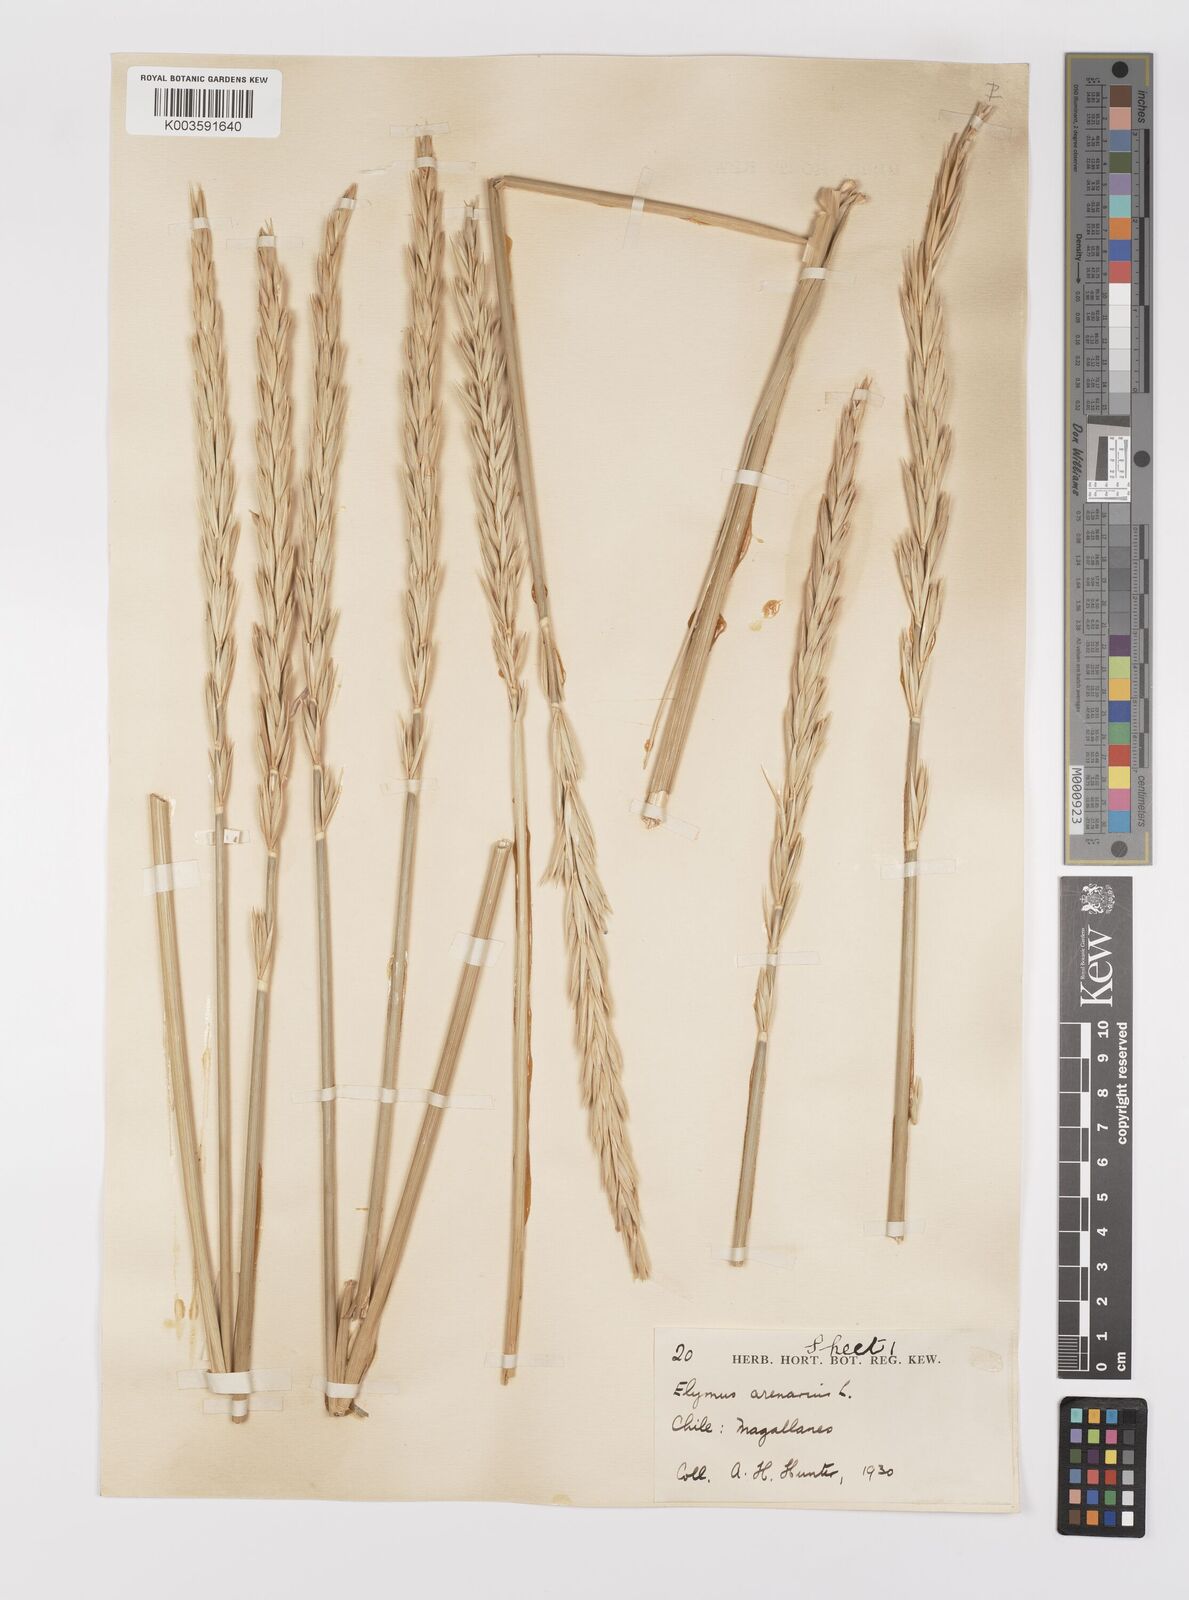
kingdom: Plantae
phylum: Tracheophyta
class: Liliopsida
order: Poales
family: Poaceae
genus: Leymus
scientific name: Leymus arenarius
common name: Lyme-grass
